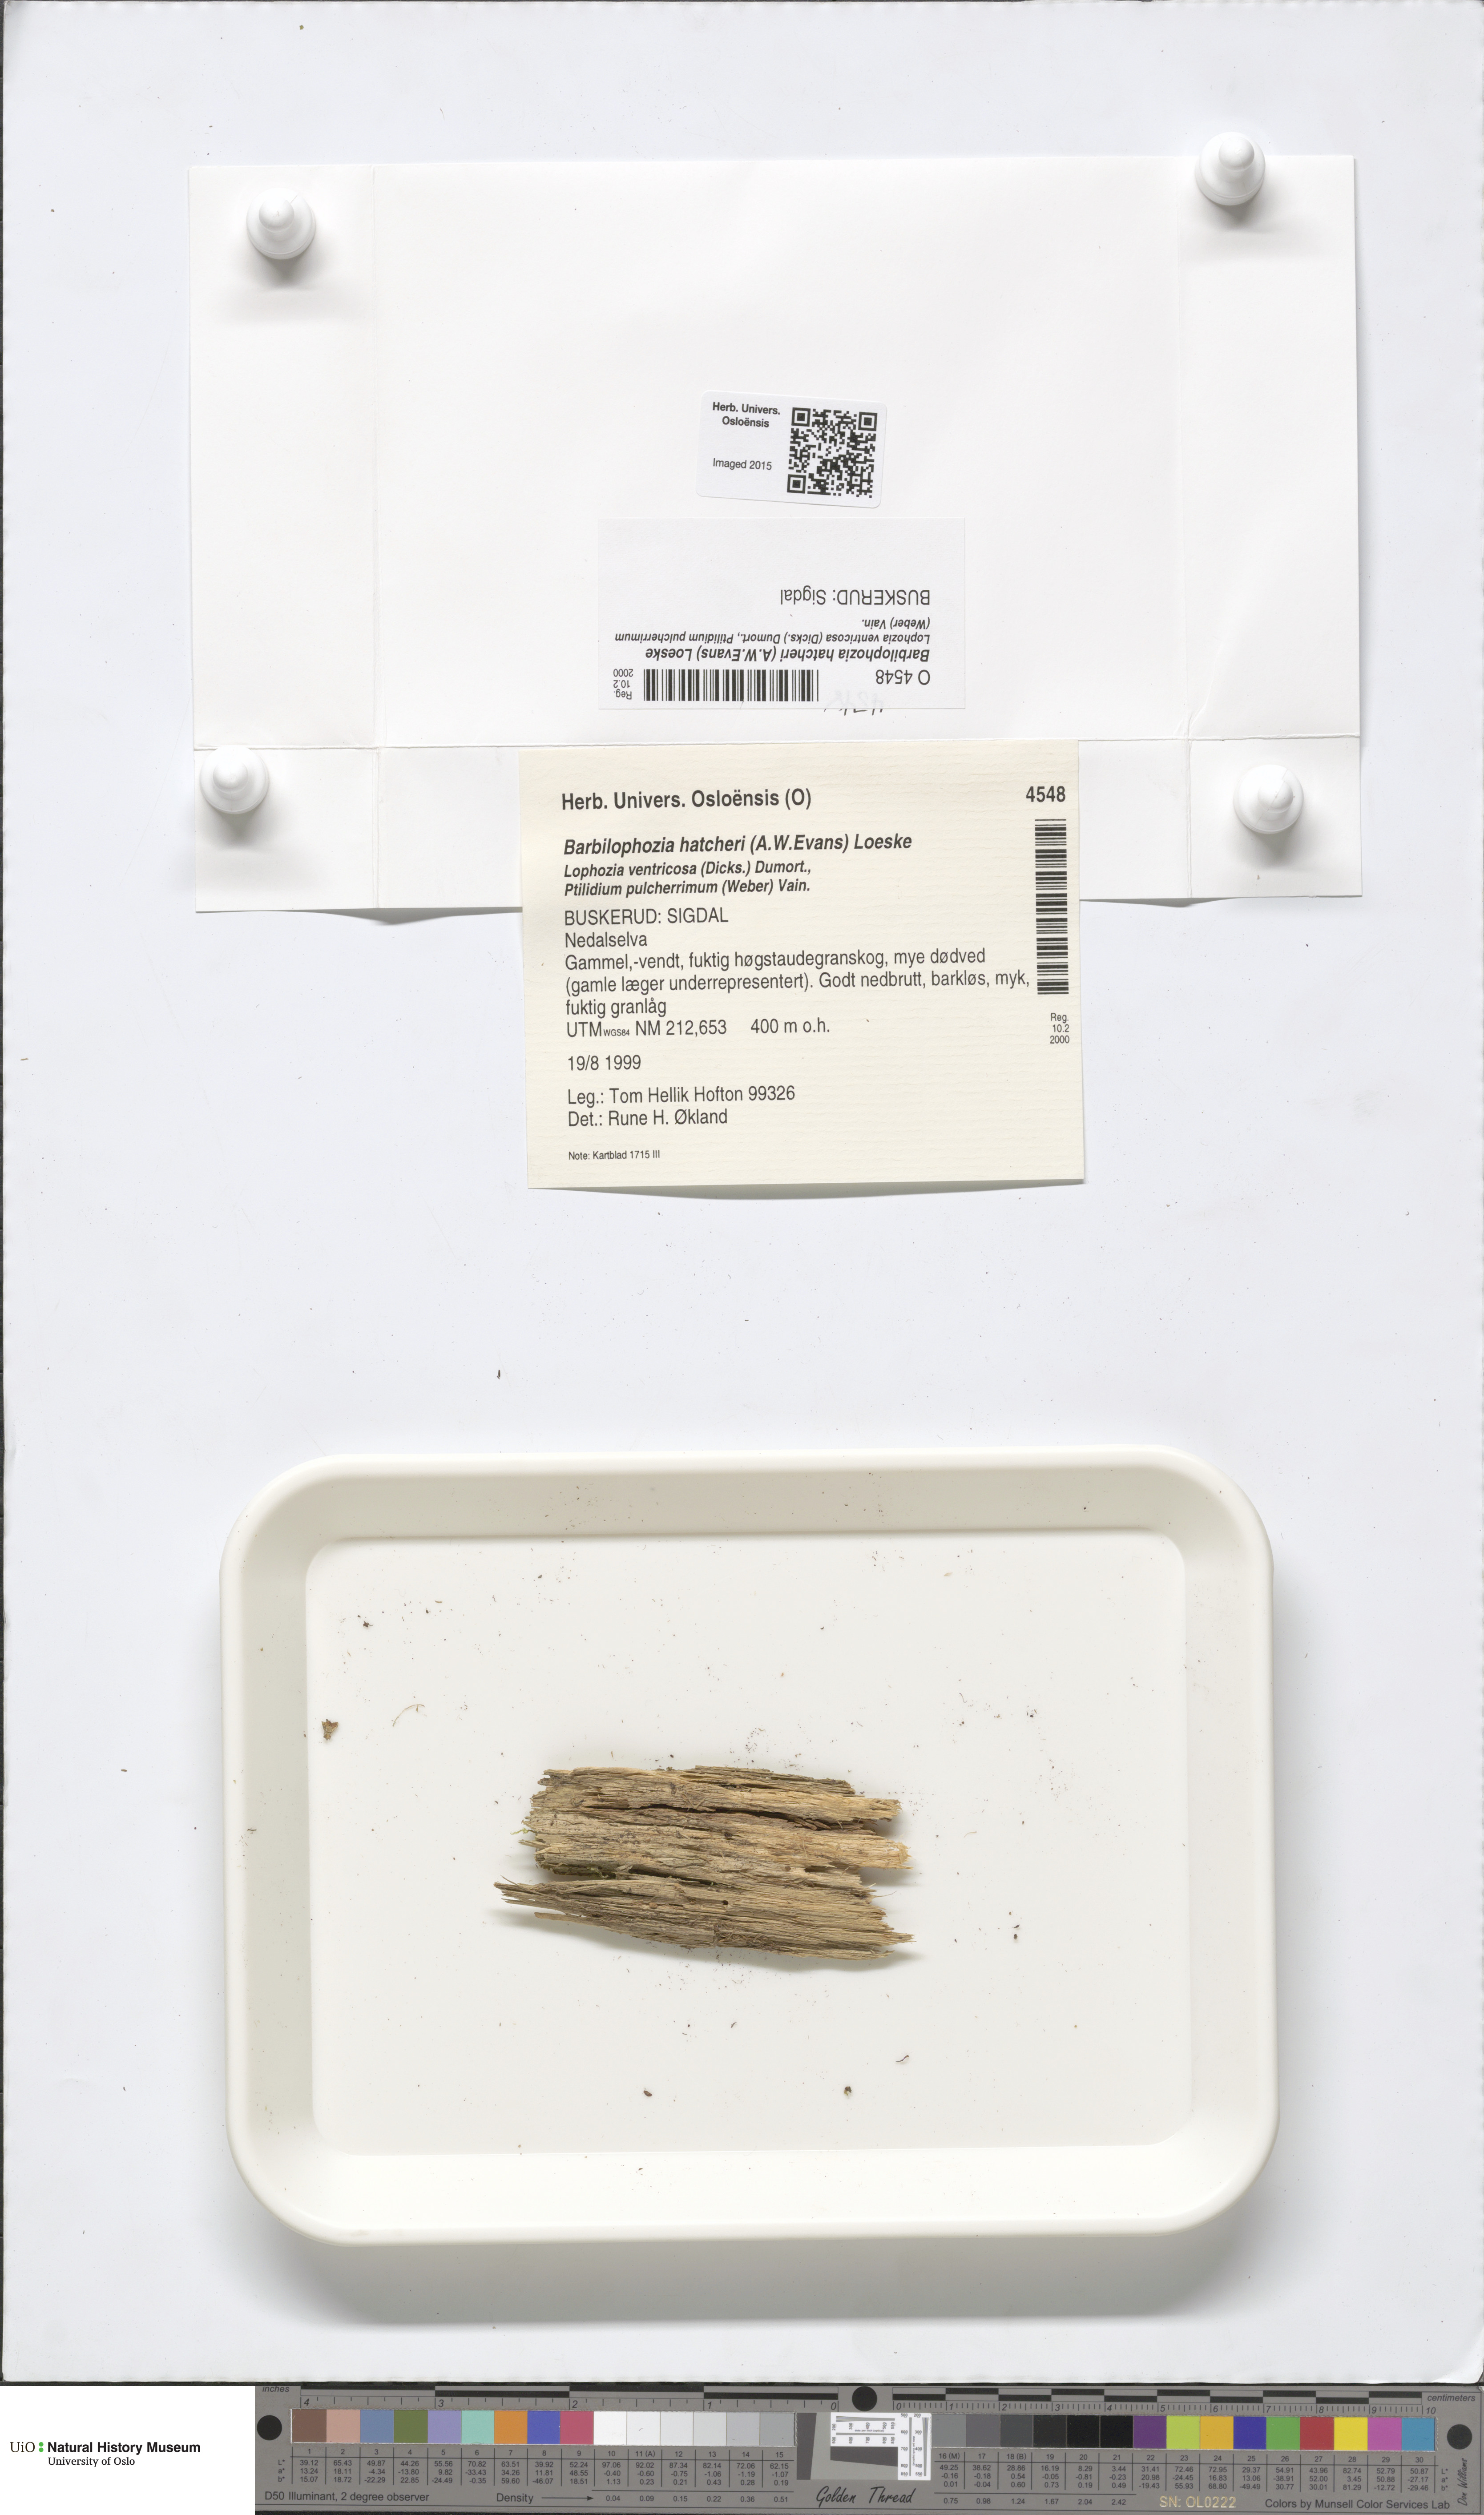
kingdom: Plantae
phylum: Marchantiophyta
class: Jungermanniopsida
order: Jungermanniales
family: Anastrophyllaceae
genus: Barbilophozia
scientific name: Barbilophozia hatcheri
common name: Hatcher s pawwort
